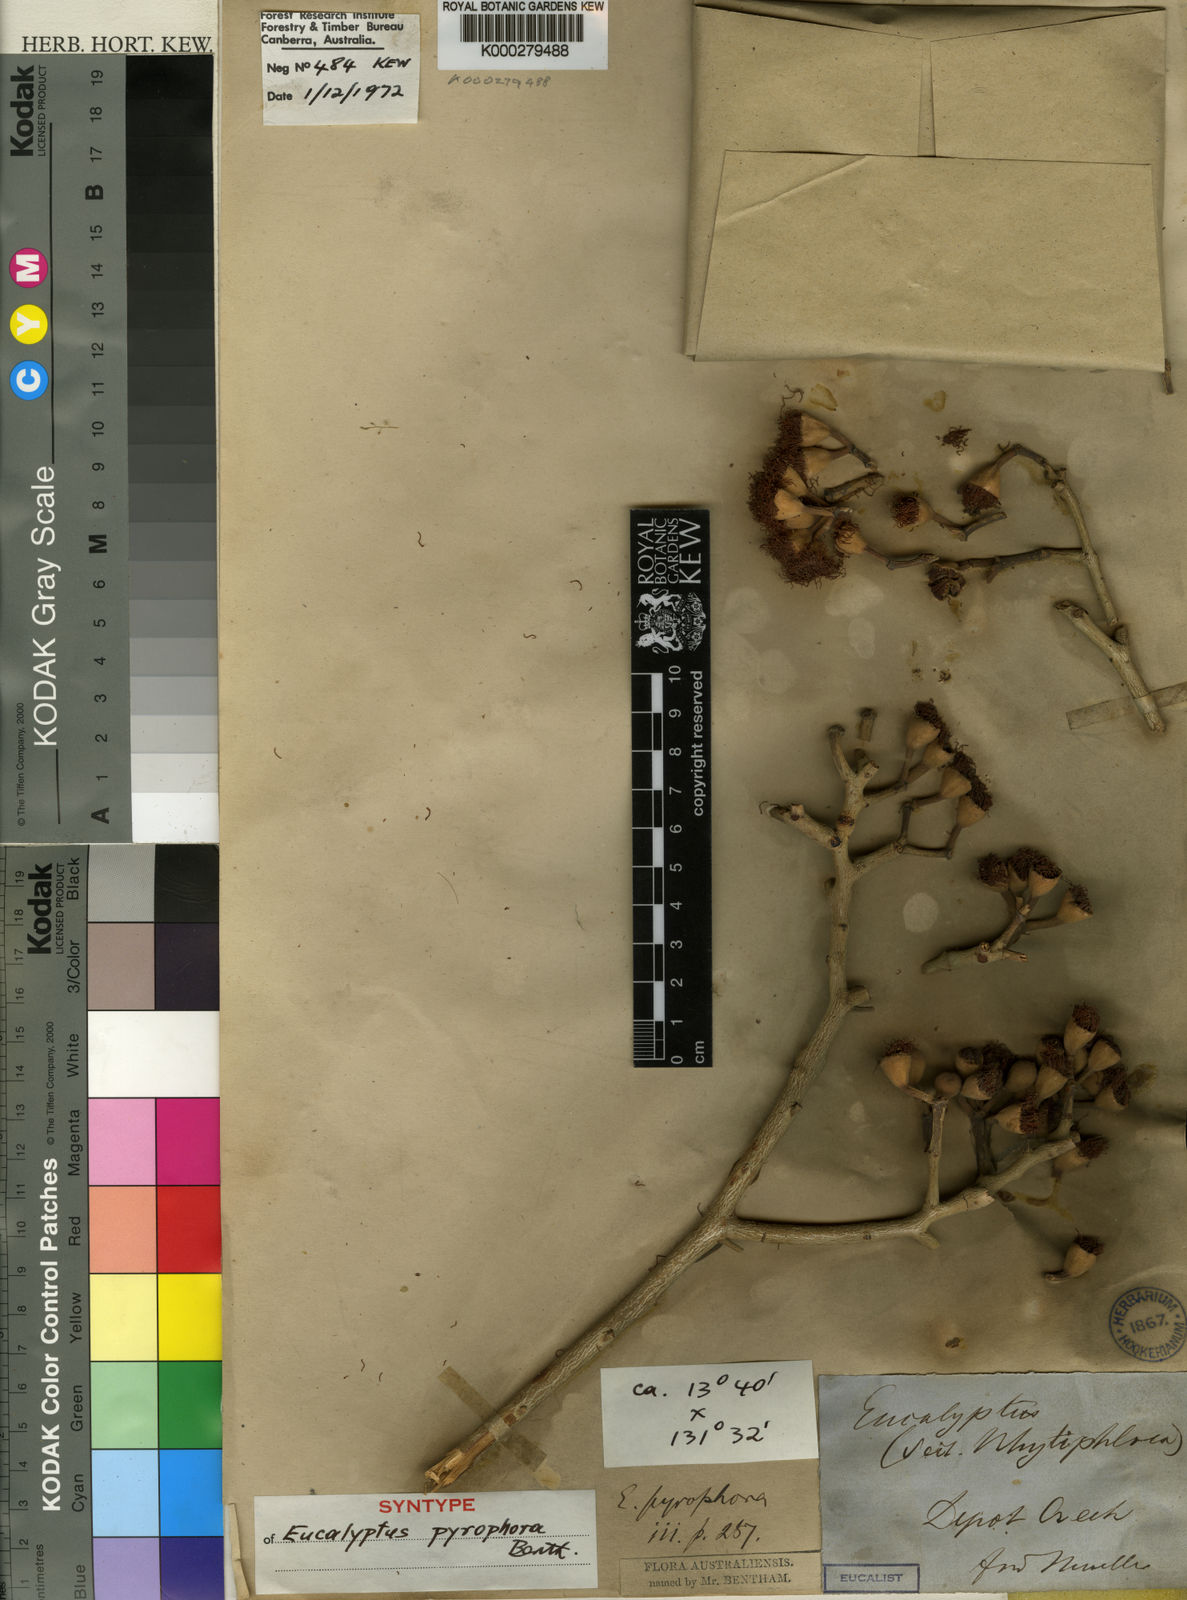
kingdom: Plantae
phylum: Tracheophyta
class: Magnoliopsida
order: Myrtales
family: Myrtaceae
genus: Corymbia
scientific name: Corymbia terminalis
